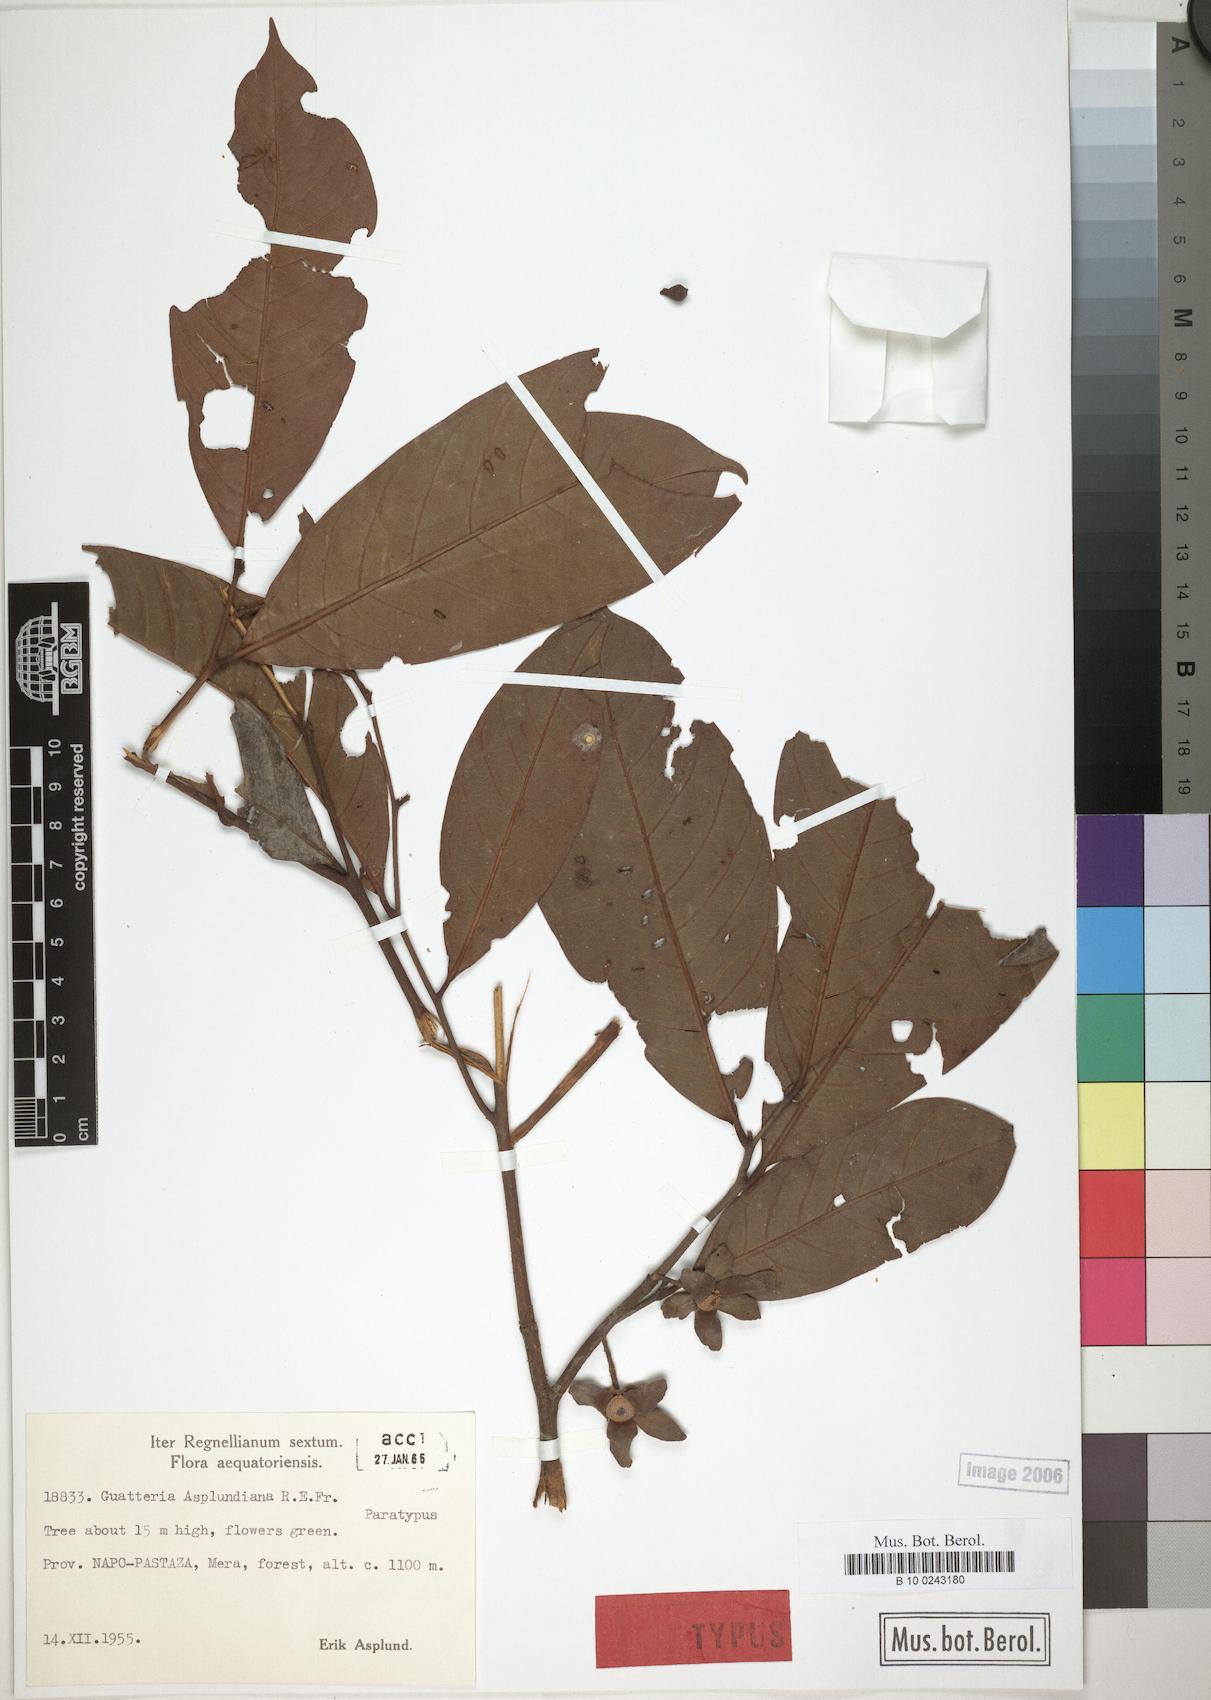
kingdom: Plantae
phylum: Tracheophyta
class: Magnoliopsida
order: Magnoliales
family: Annonaceae
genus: Guatteria
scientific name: Guatteria asplundiana
